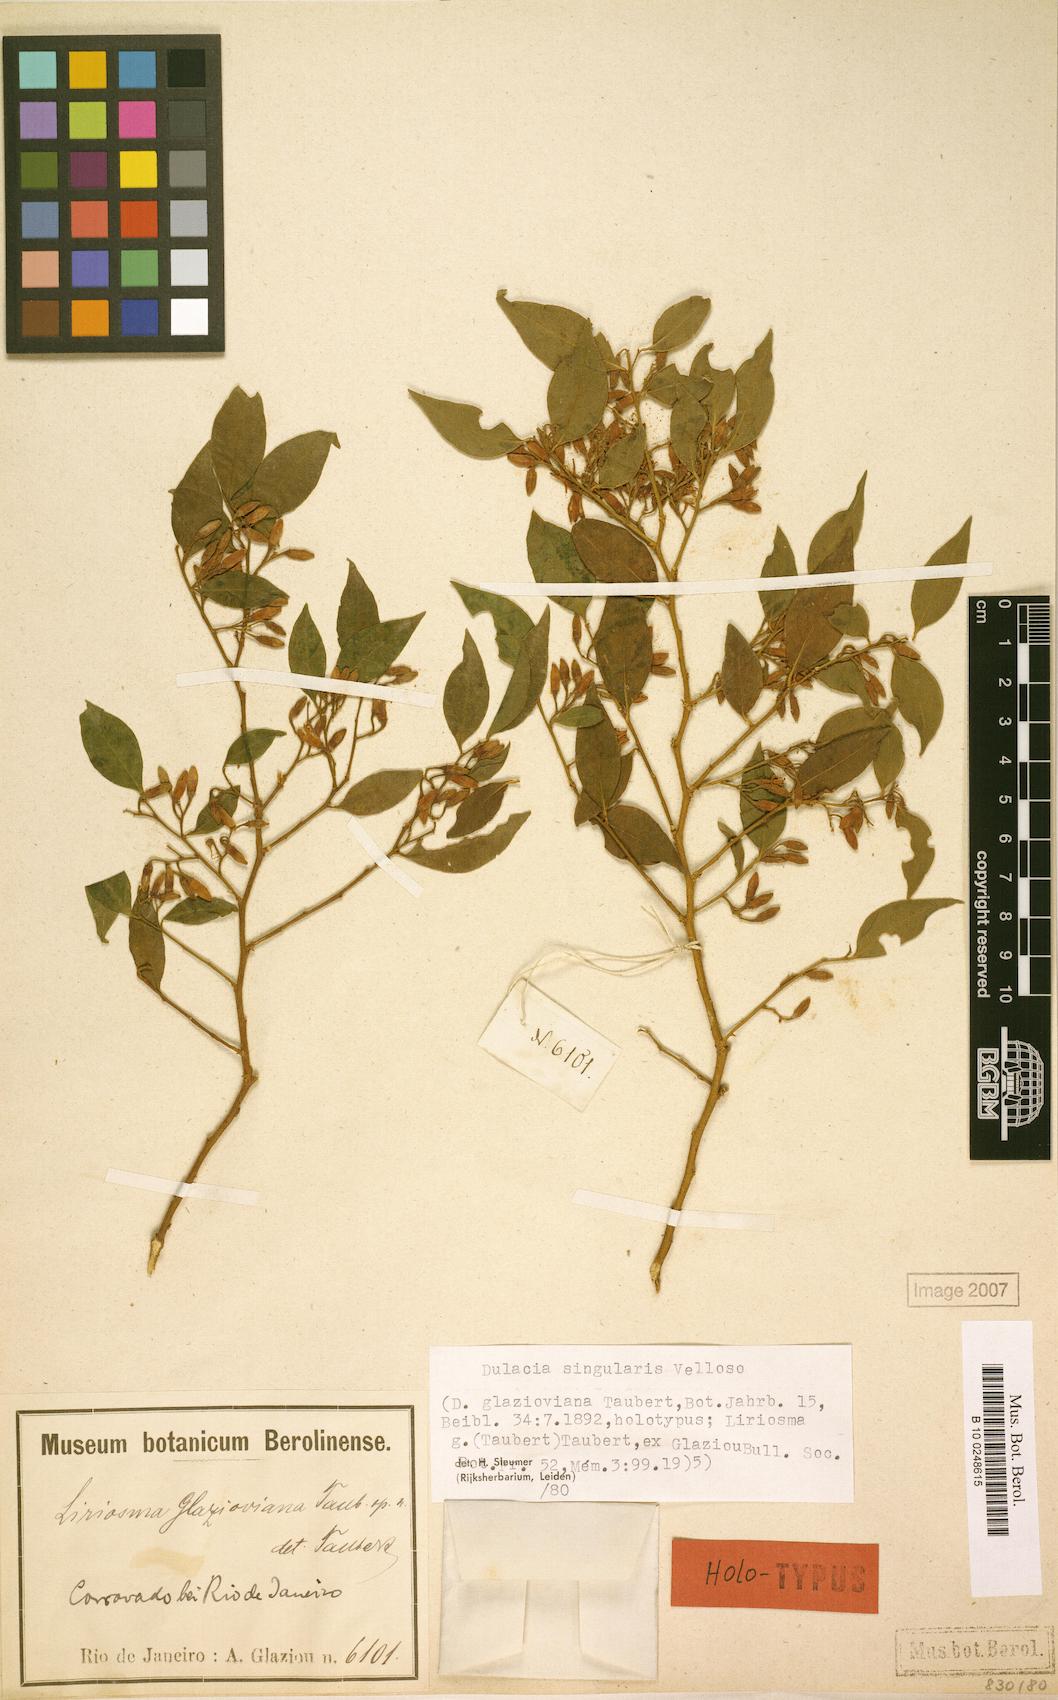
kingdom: Plantae
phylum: Tracheophyta
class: Magnoliopsida
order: Santalales
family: Olacaceae
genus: Dulacia
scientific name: Dulacia singularis
